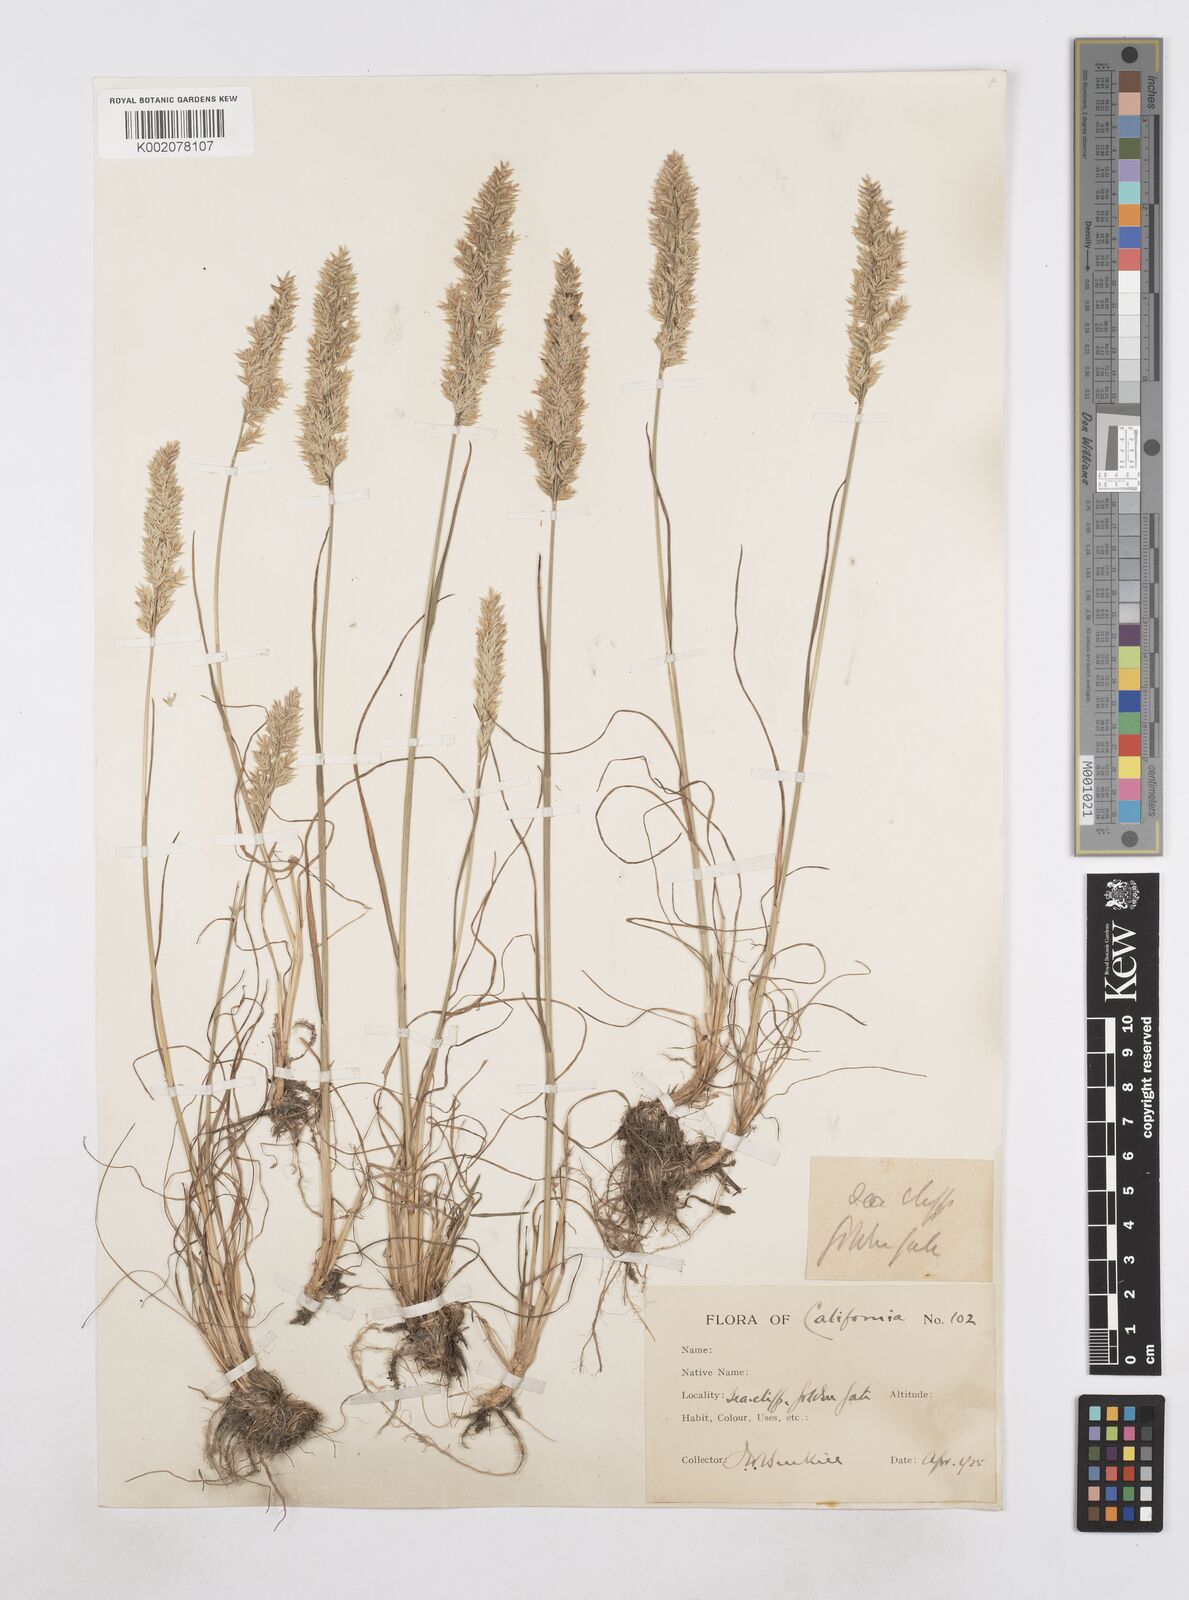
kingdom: Plantae
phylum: Tracheophyta
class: Liliopsida
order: Poales
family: Poaceae
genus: Poa
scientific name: Poa
